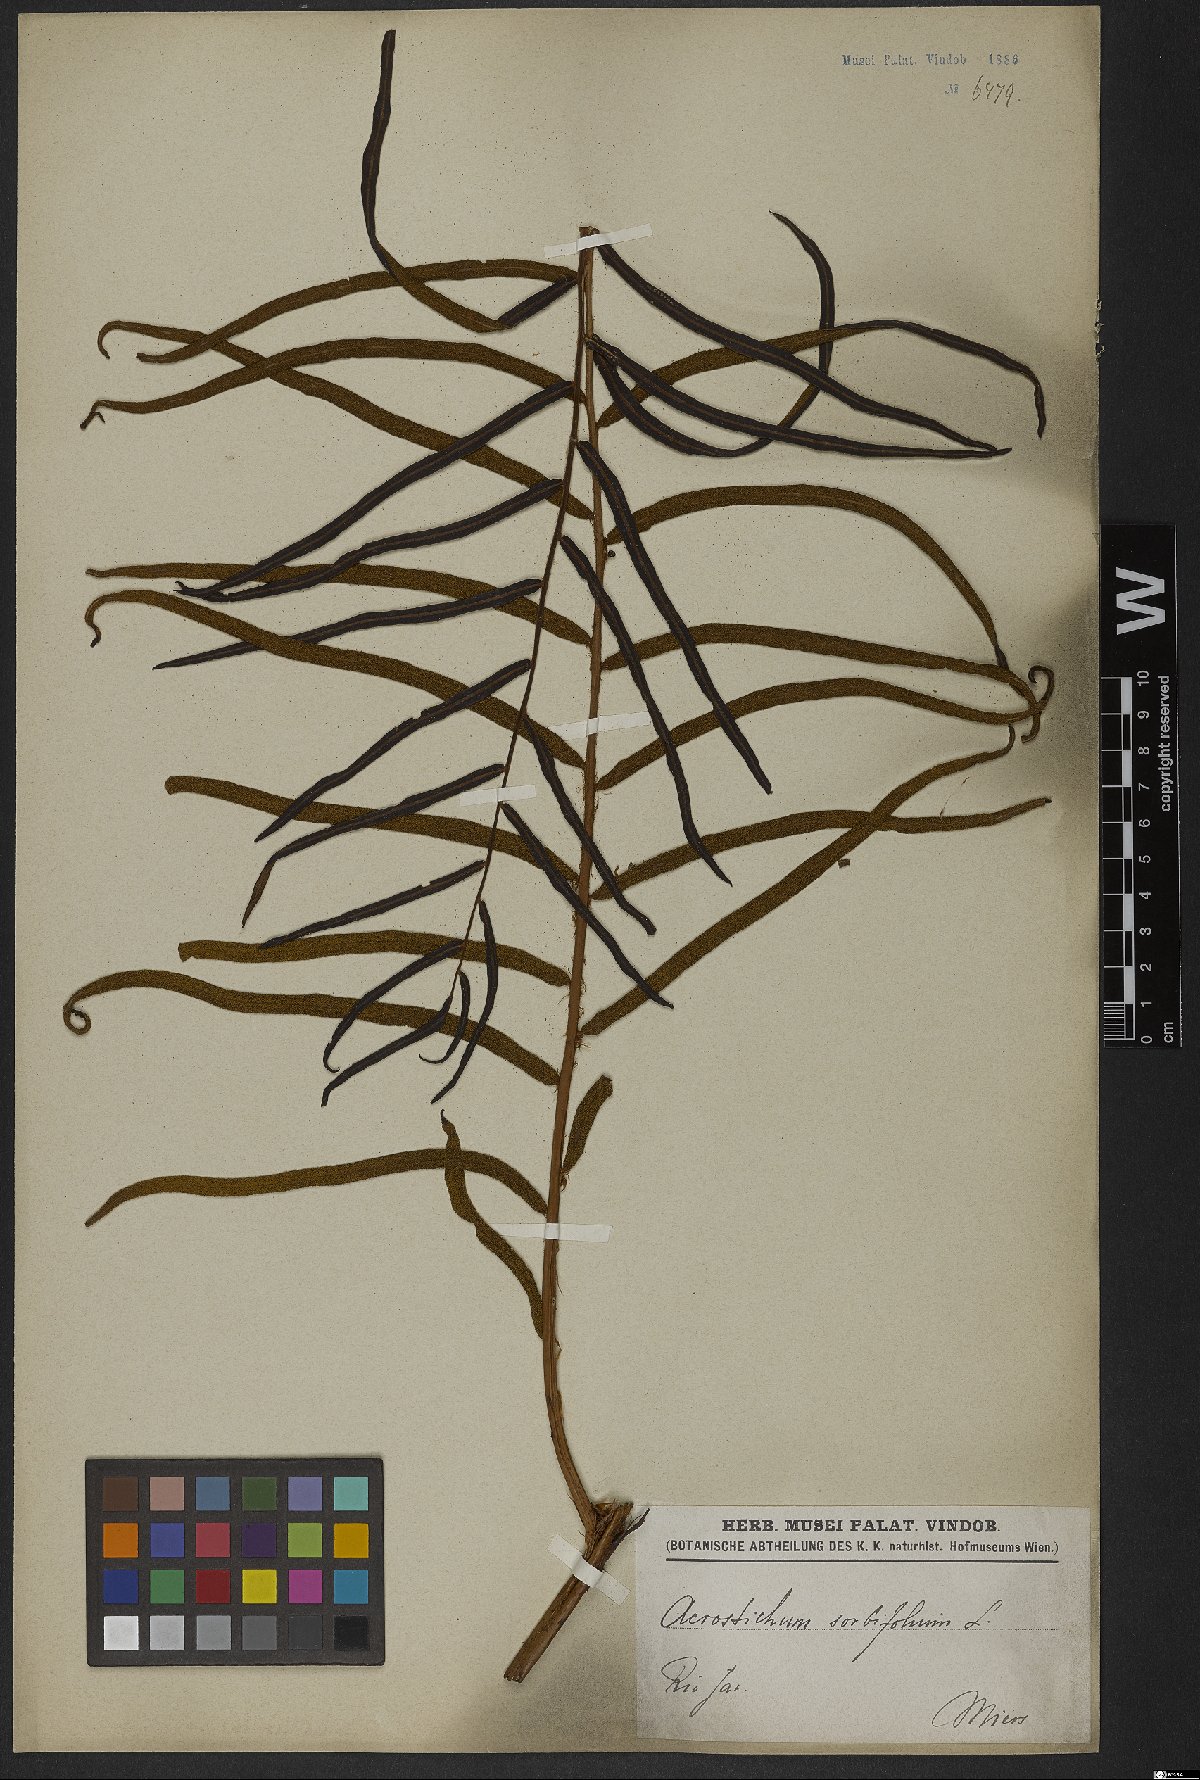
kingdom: Plantae
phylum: Tracheophyta
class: Polypodiopsida
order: Polypodiales
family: Blechnaceae
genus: Stenochlaena
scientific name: Stenochlaena
